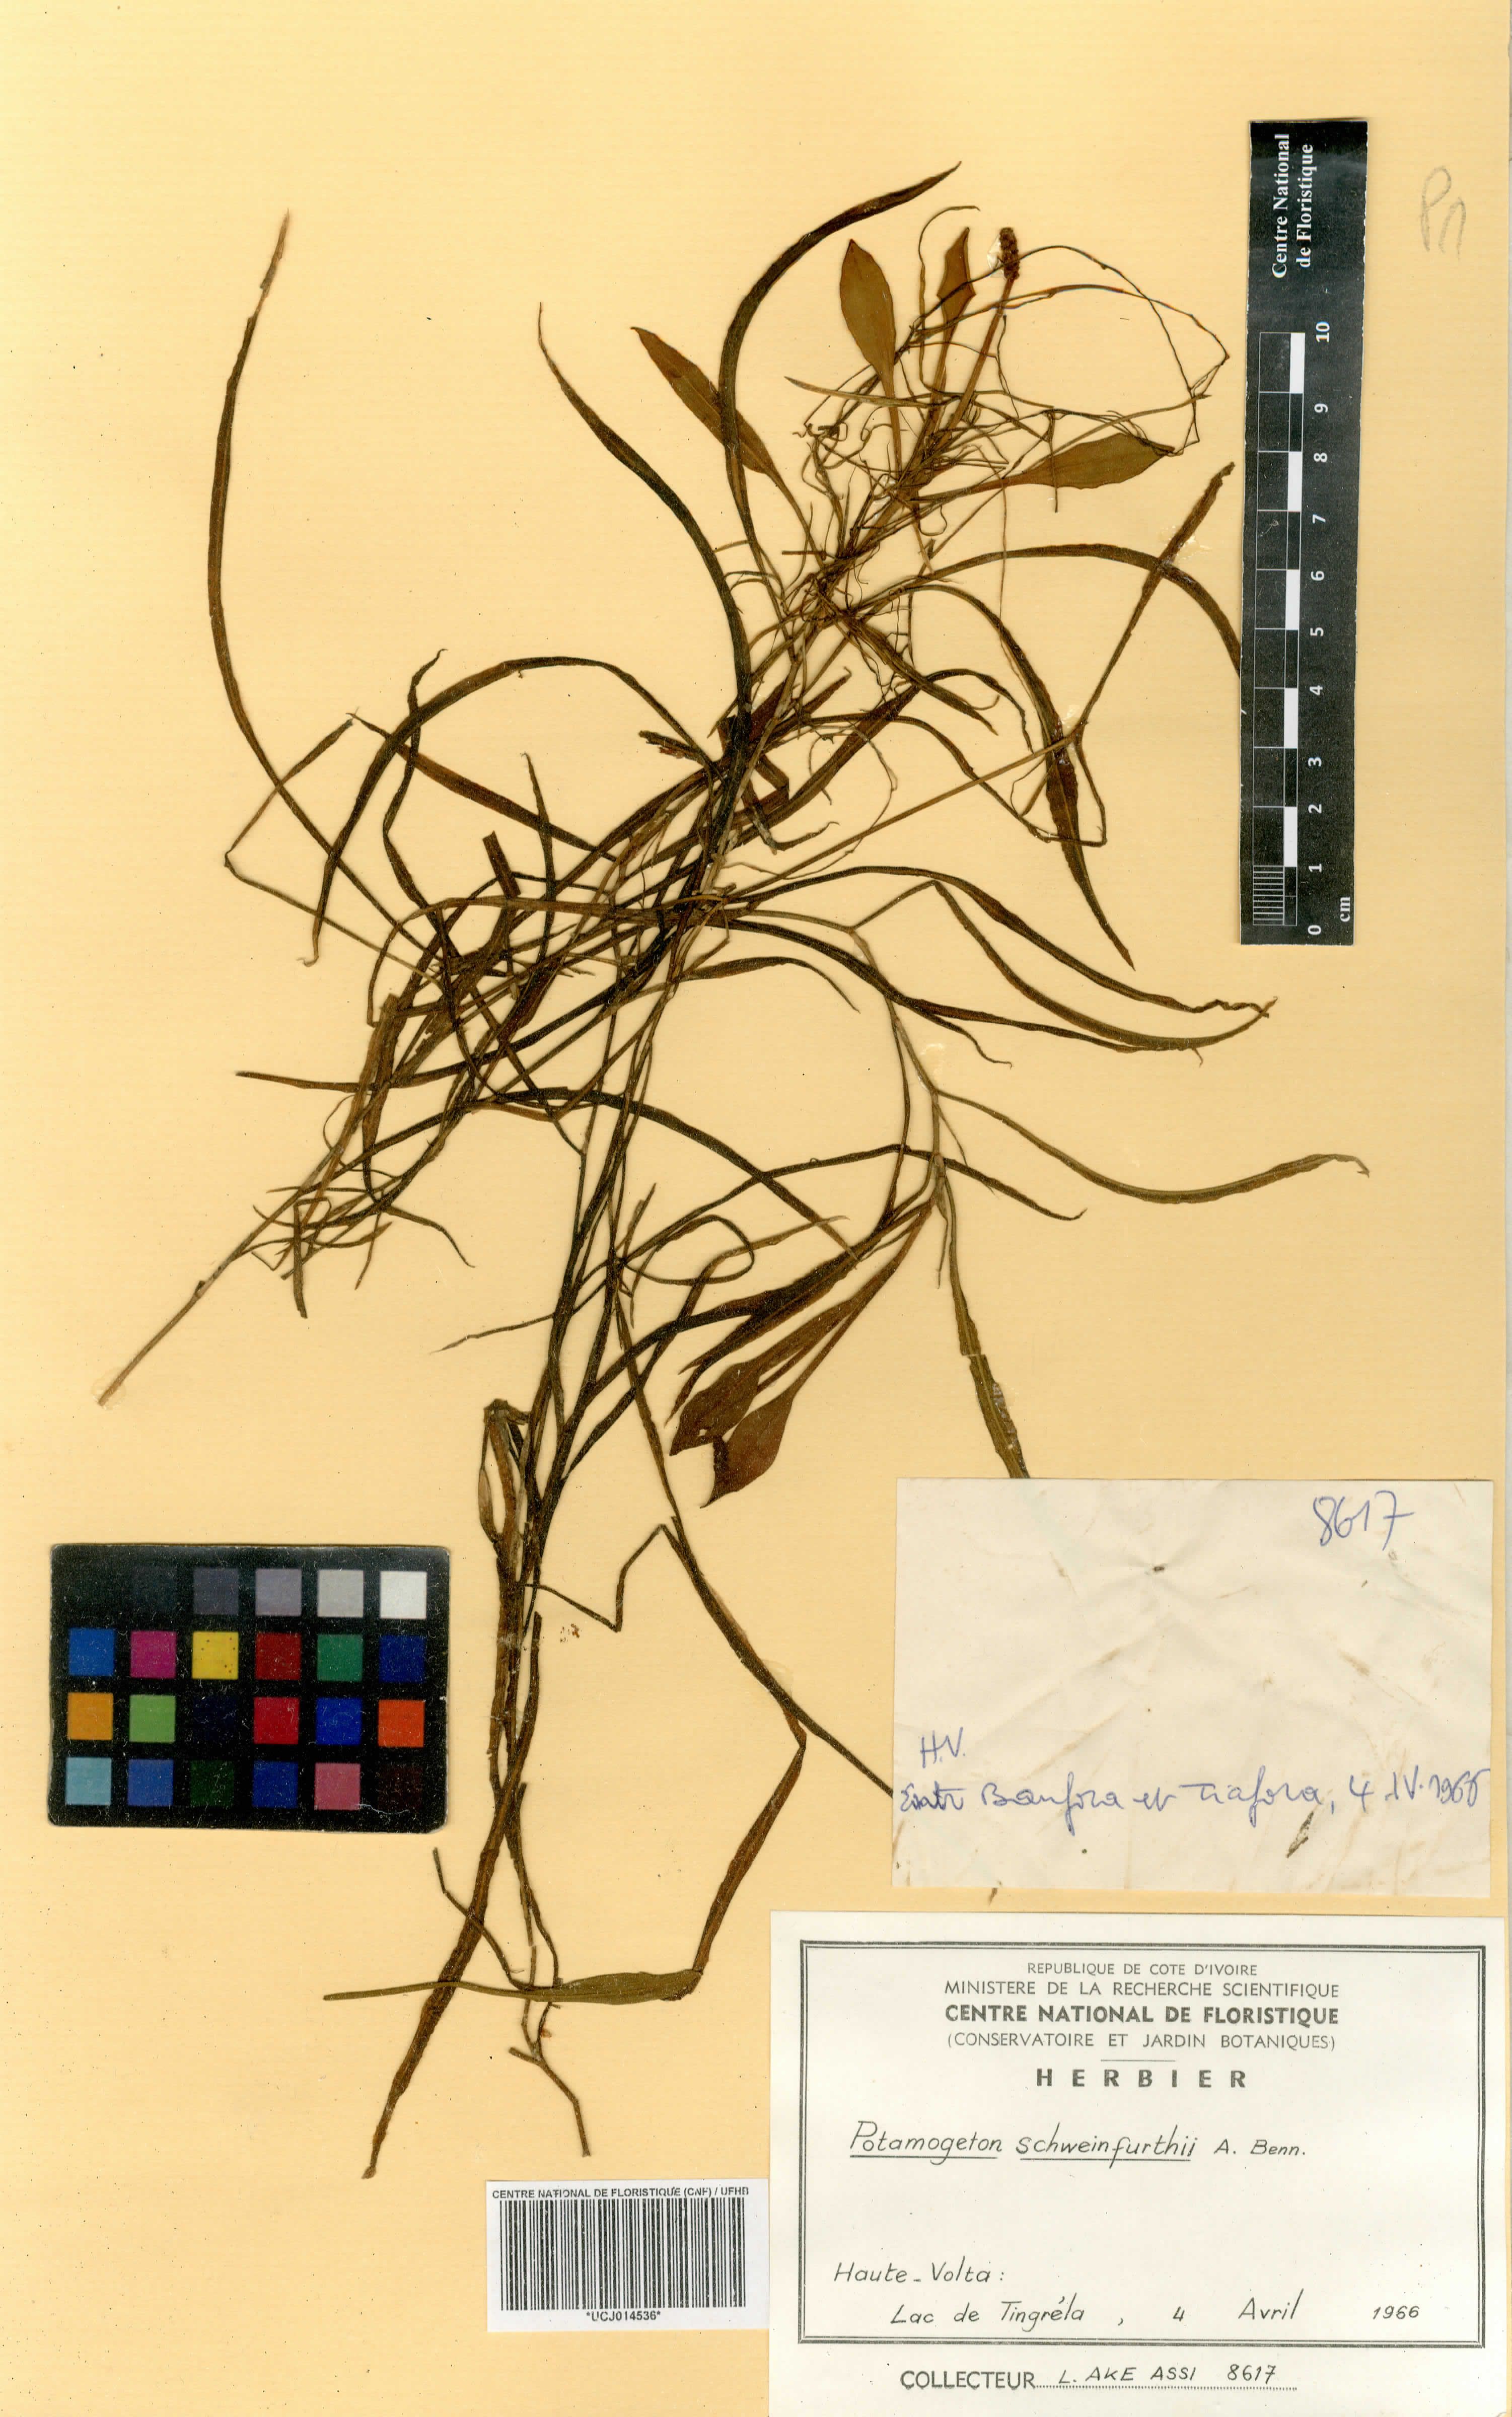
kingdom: Plantae
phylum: Tracheophyta
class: Liliopsida
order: Alismatales
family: Potamogetonaceae
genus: Potamogeton
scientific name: Potamogeton schweinfurthii
